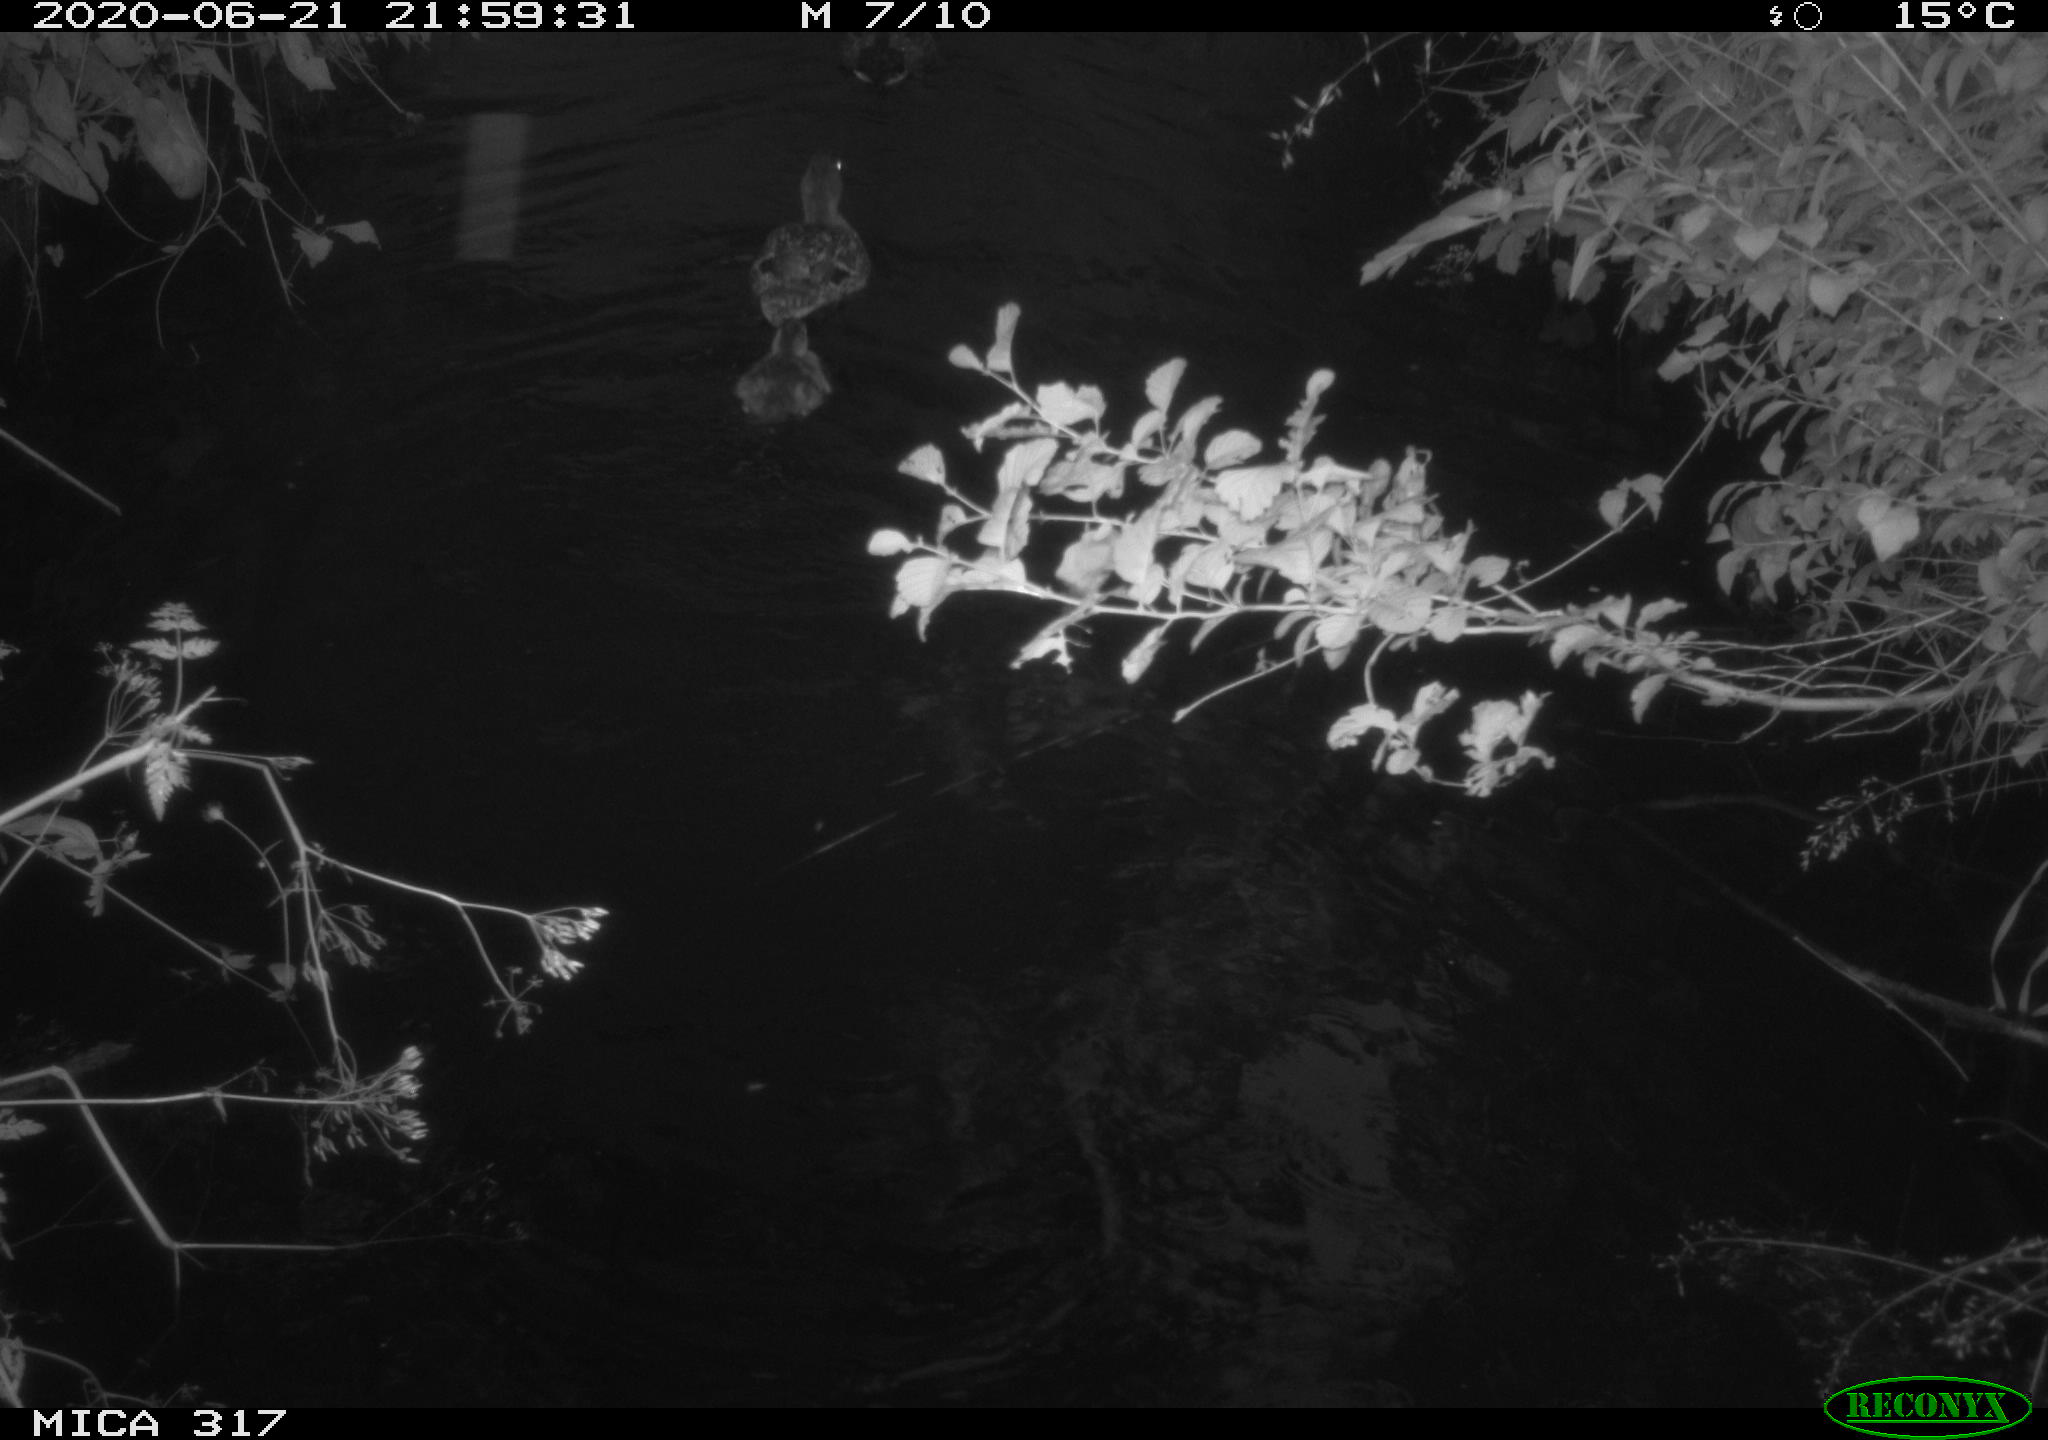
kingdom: Animalia
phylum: Chordata
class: Aves
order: Anseriformes
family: Anatidae
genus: Anas
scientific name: Anas platyrhynchos
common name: Mallard
